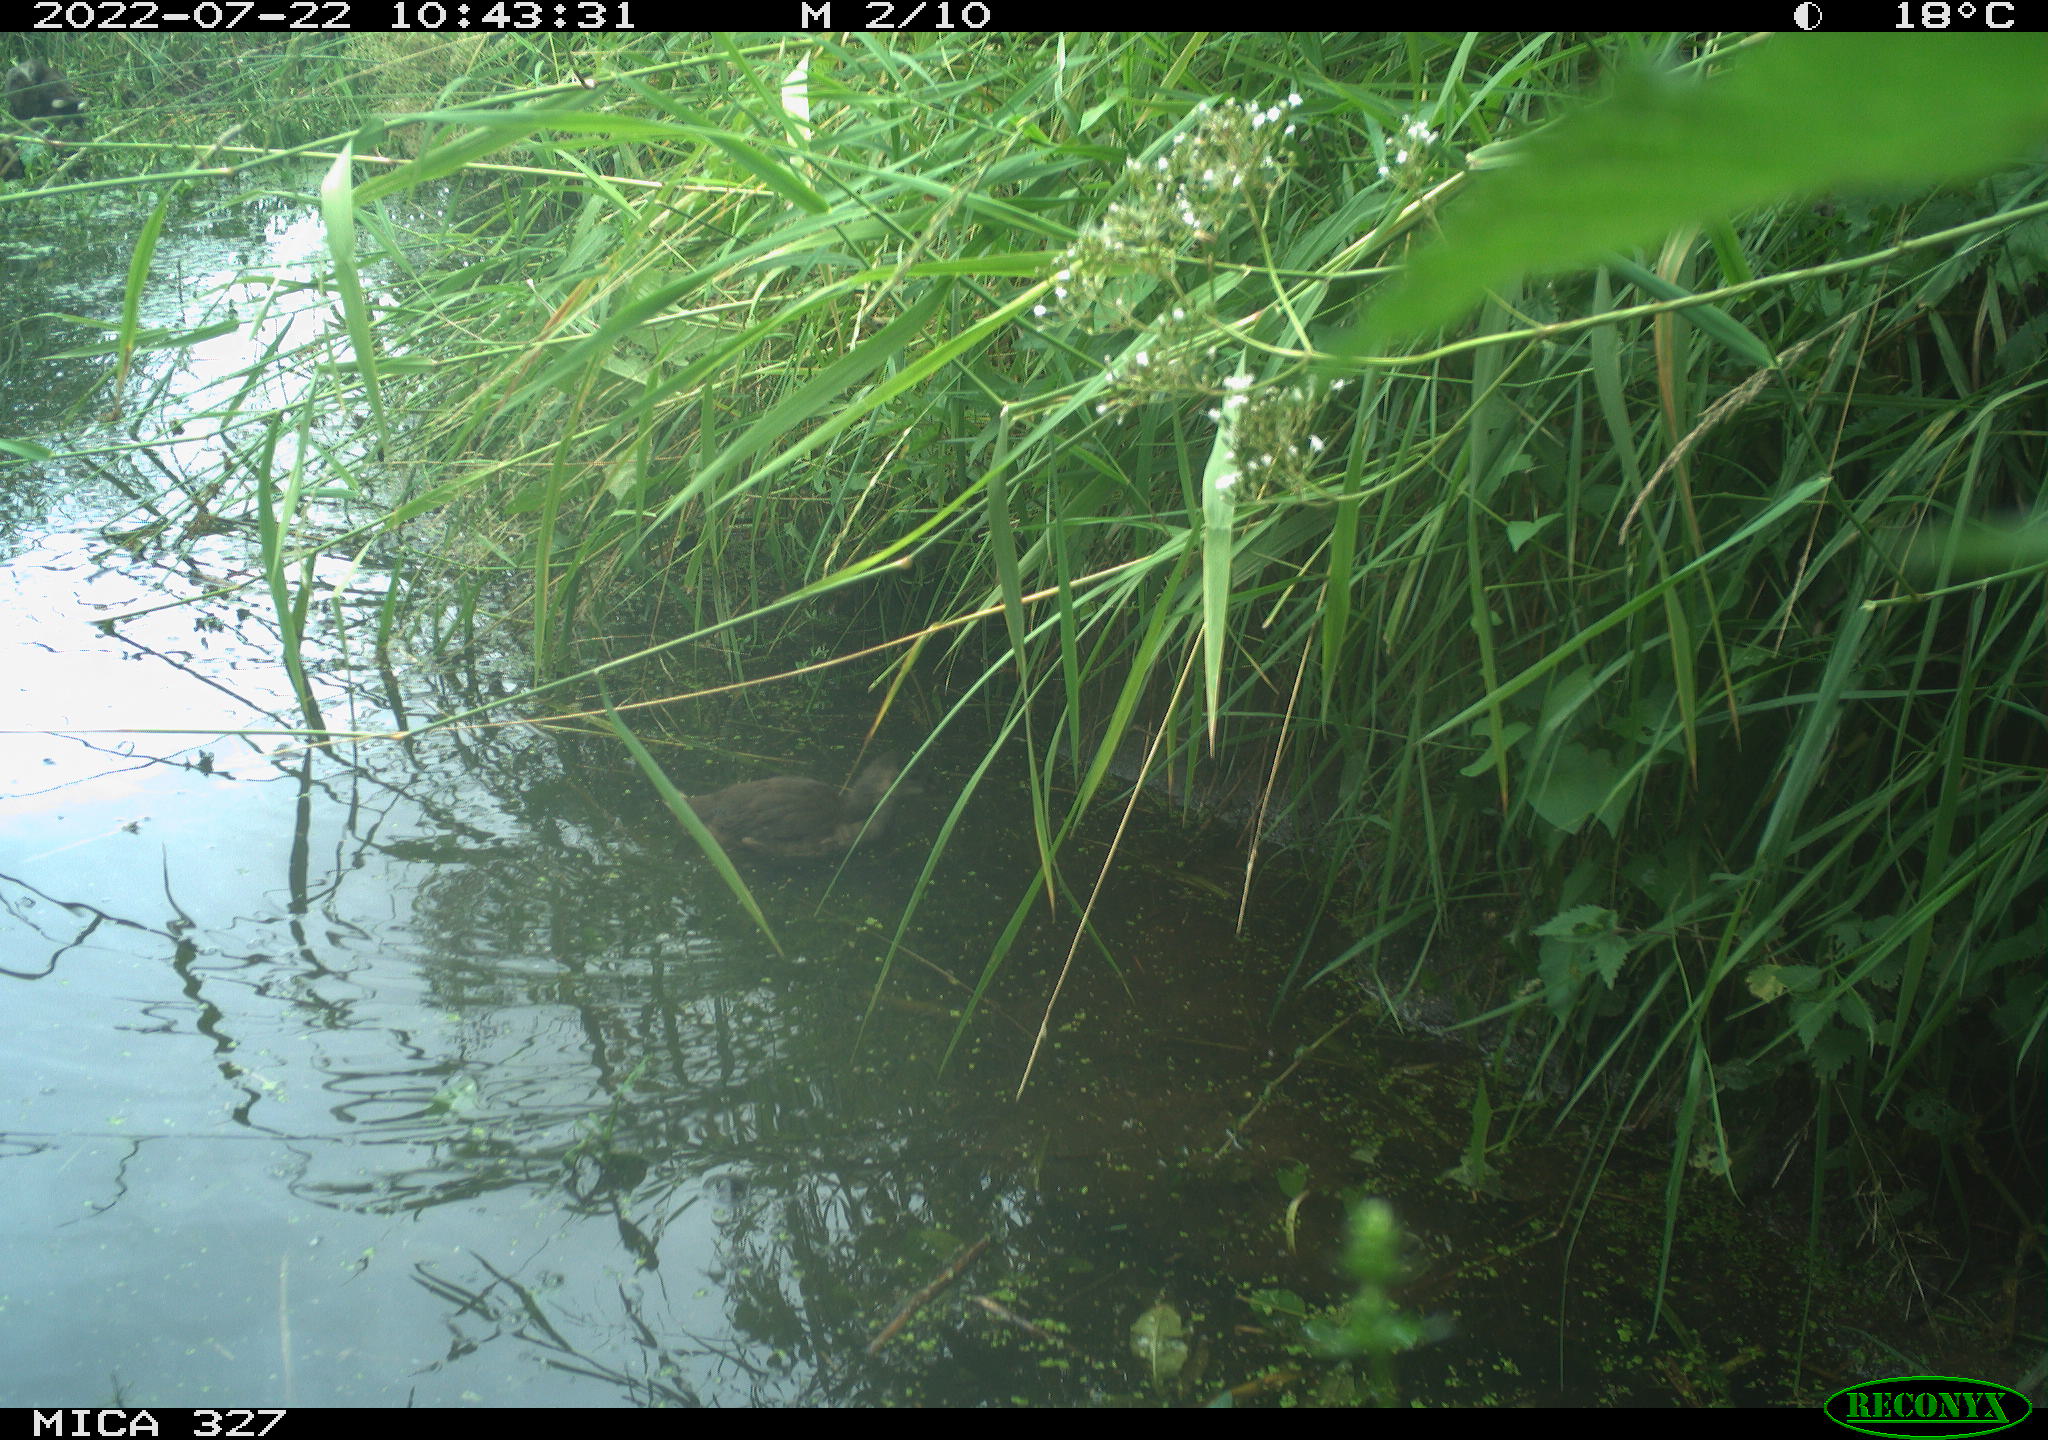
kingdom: Animalia
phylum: Chordata
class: Aves
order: Gruiformes
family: Rallidae
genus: Gallinula
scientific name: Gallinula chloropus
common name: Common moorhen
